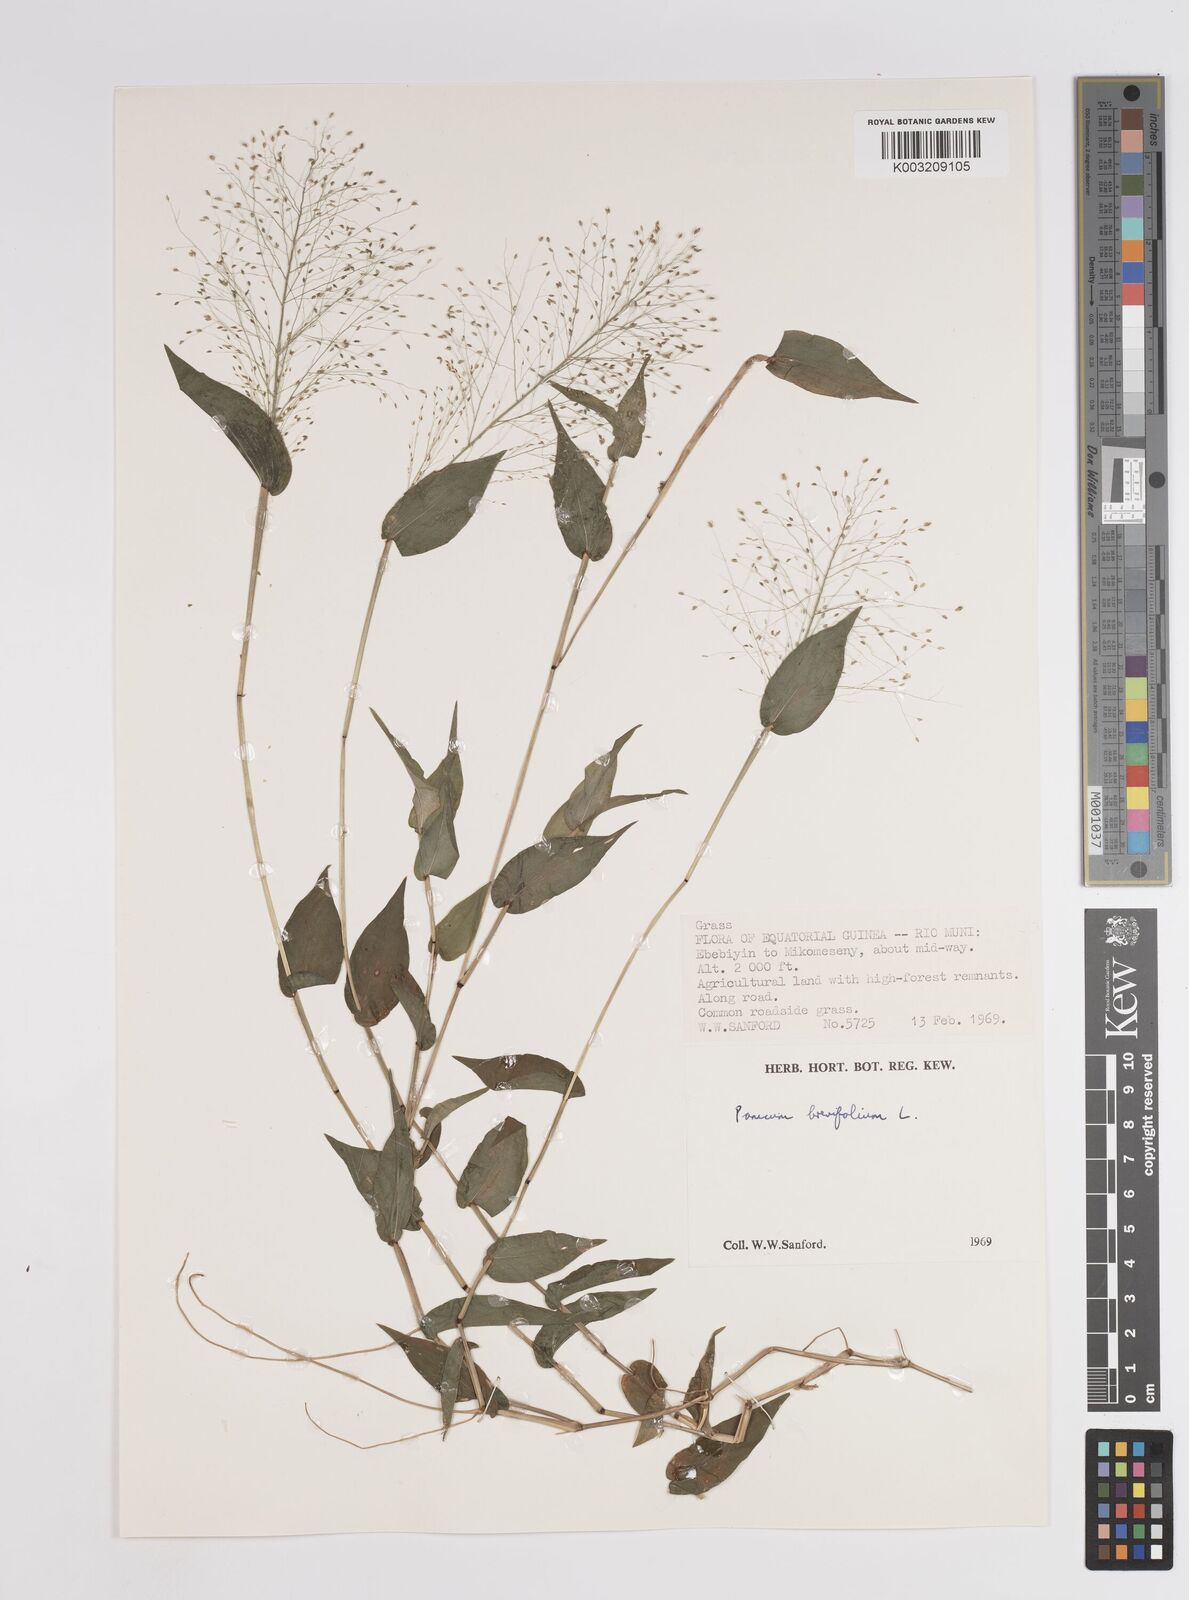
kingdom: Plantae
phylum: Tracheophyta
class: Liliopsida
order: Poales
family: Poaceae
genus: Panicum
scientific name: Panicum brevifolium
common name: Shortleaf panic grass
